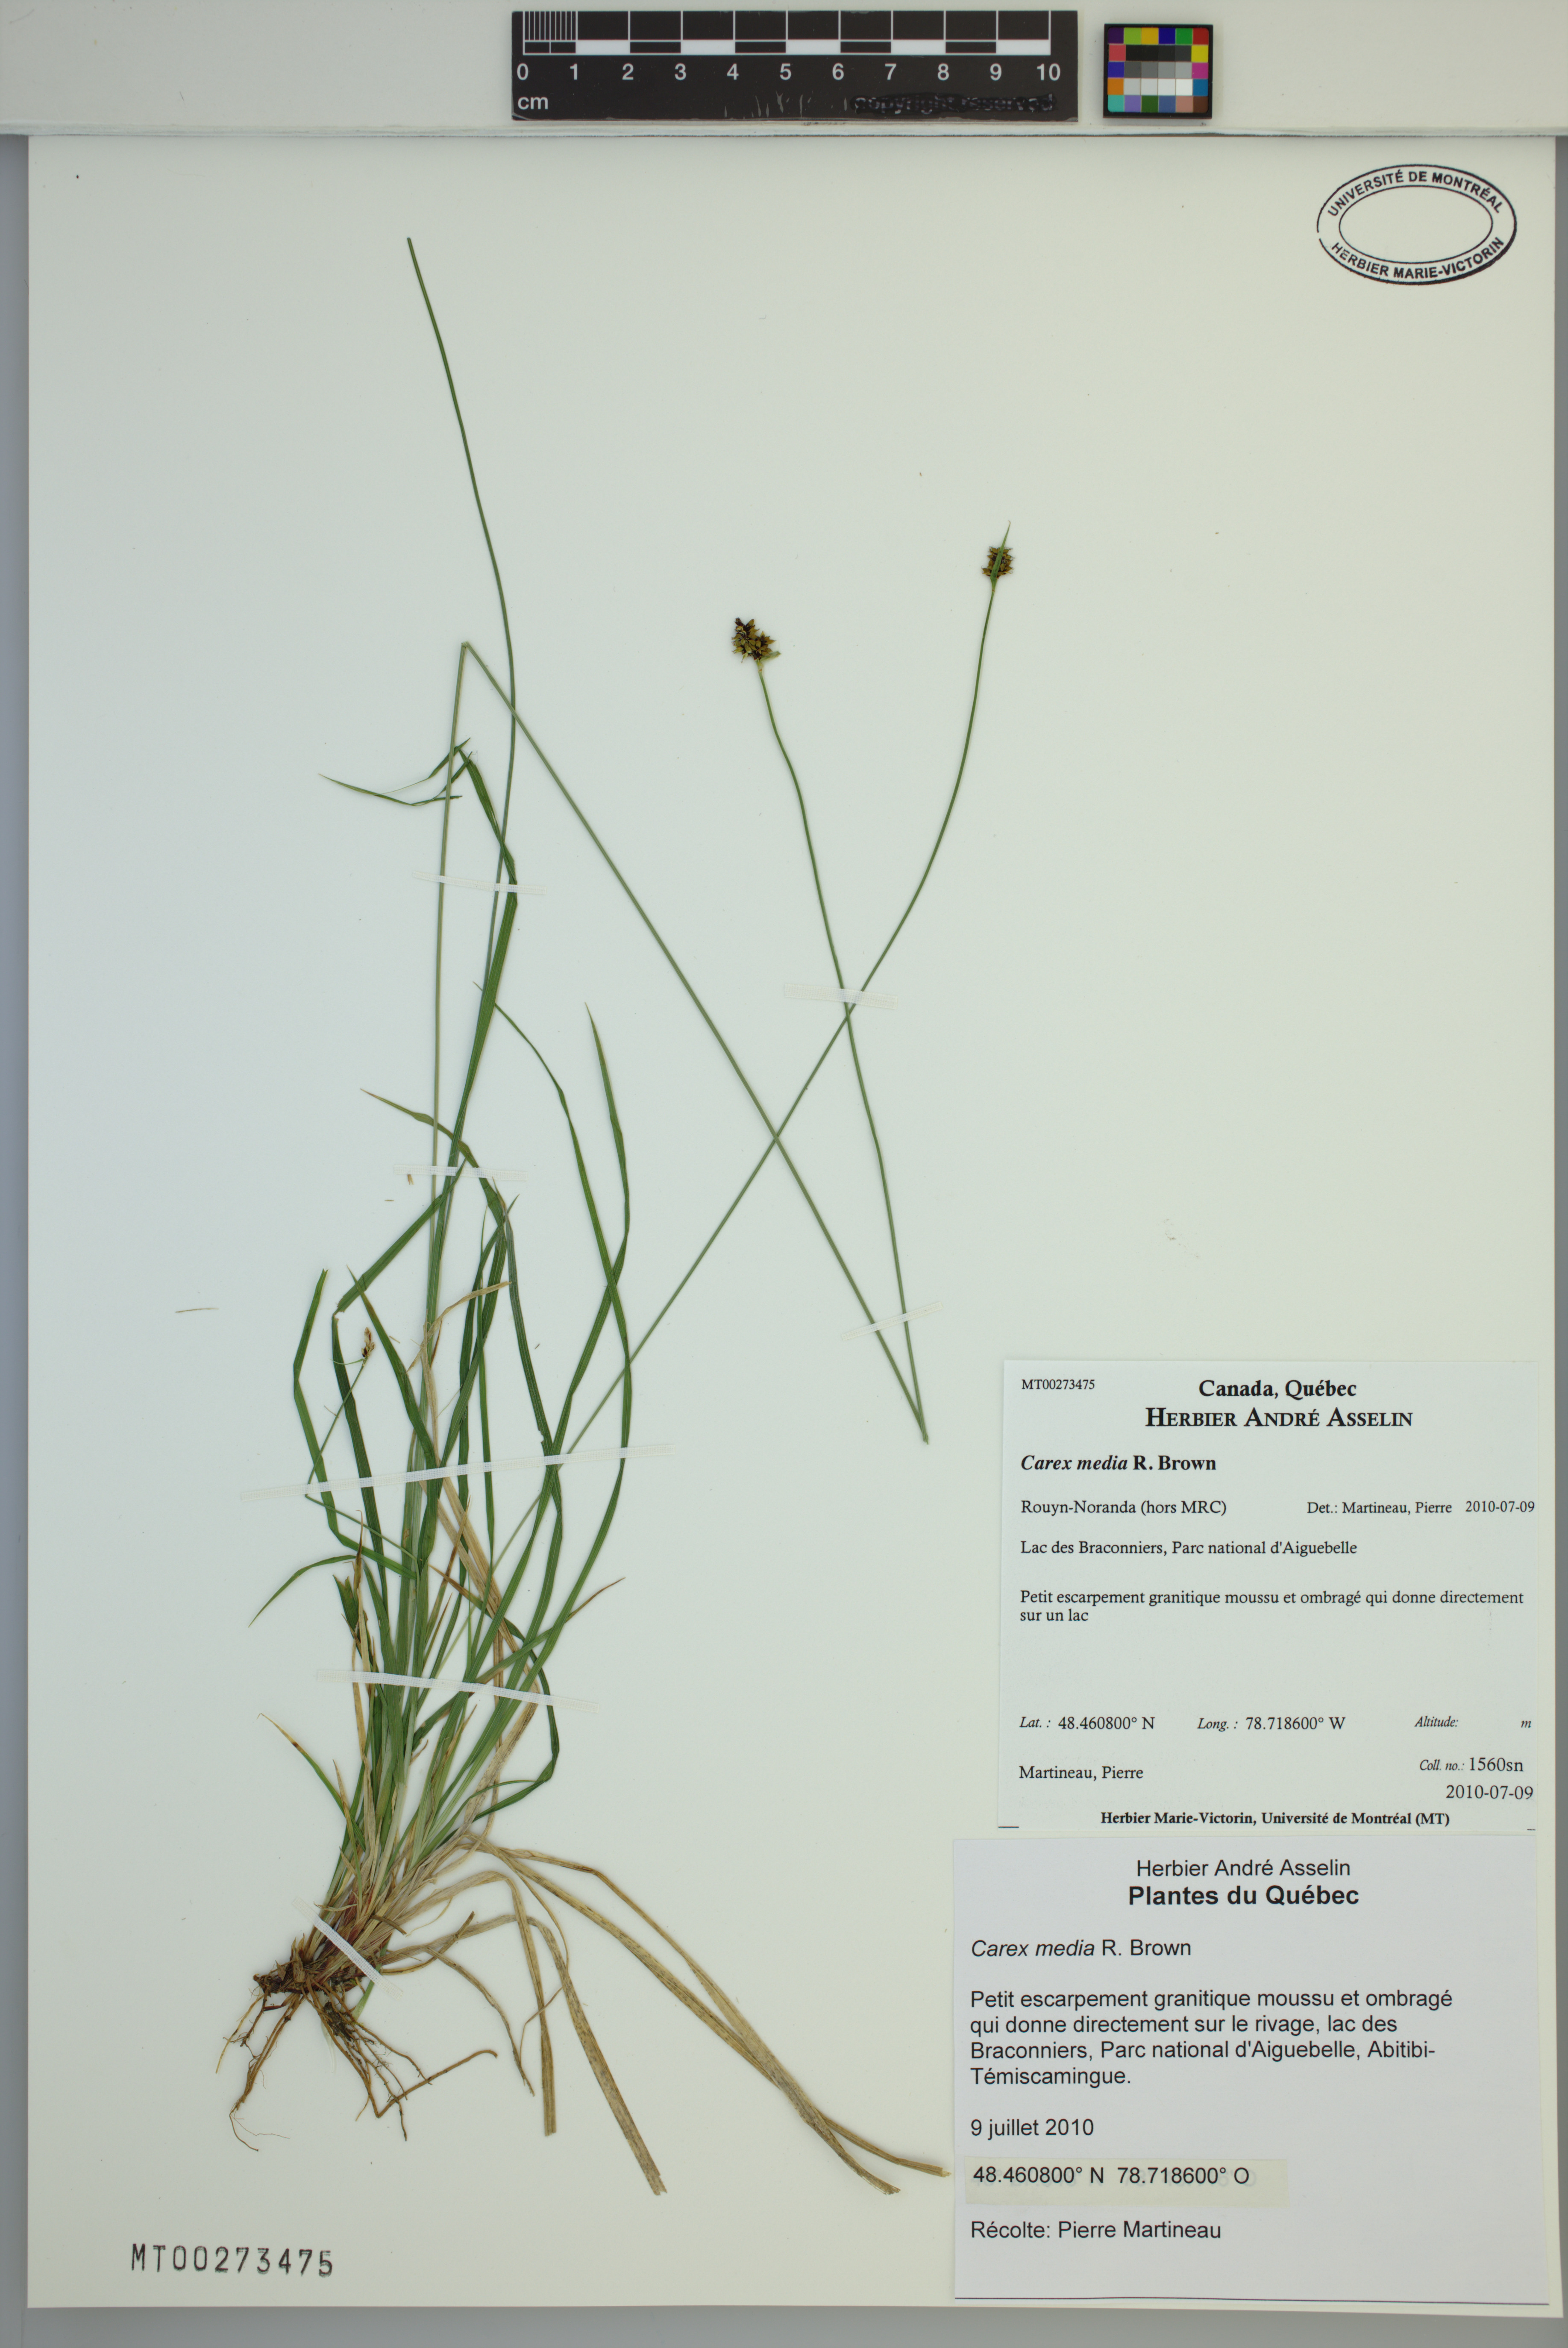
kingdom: Plantae
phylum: Tracheophyta
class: Liliopsida
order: Poales
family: Cyperaceae
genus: Carex
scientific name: Carex media
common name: Alpine sedge
